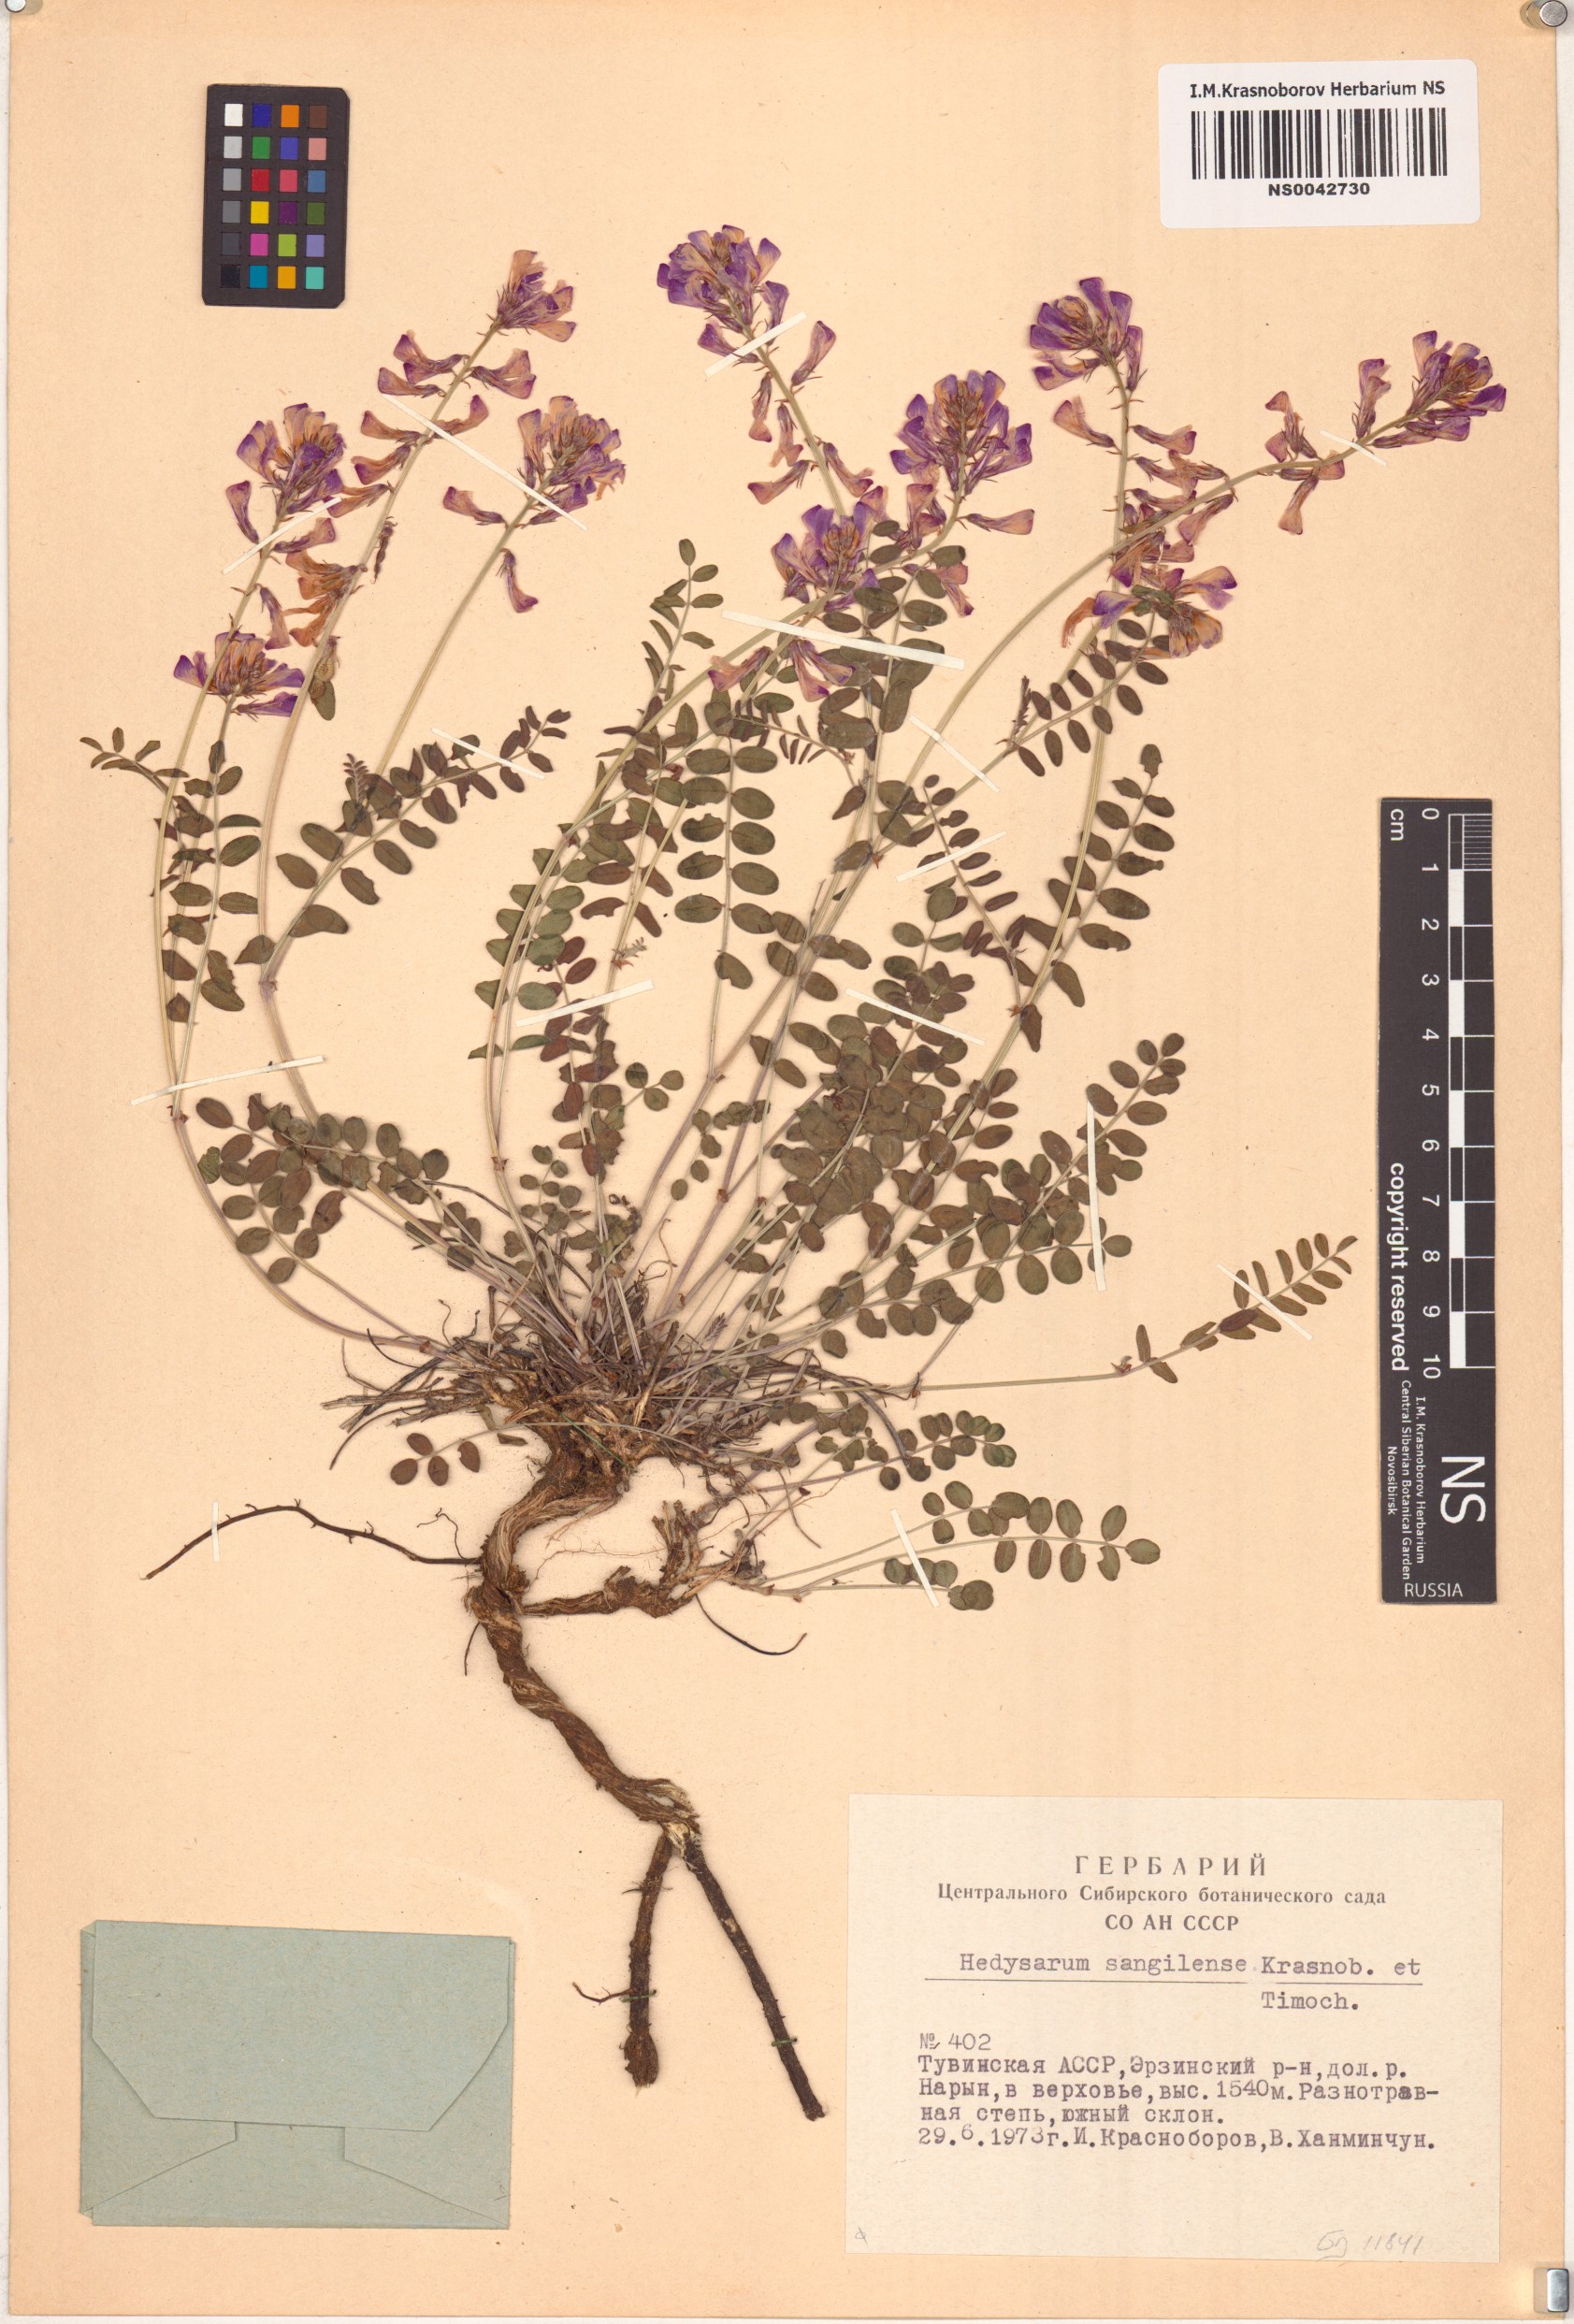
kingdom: Plantae
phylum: Tracheophyta
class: Magnoliopsida
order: Fabales
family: Fabaceae
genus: Hedysarum
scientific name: Hedysarum sangilense
